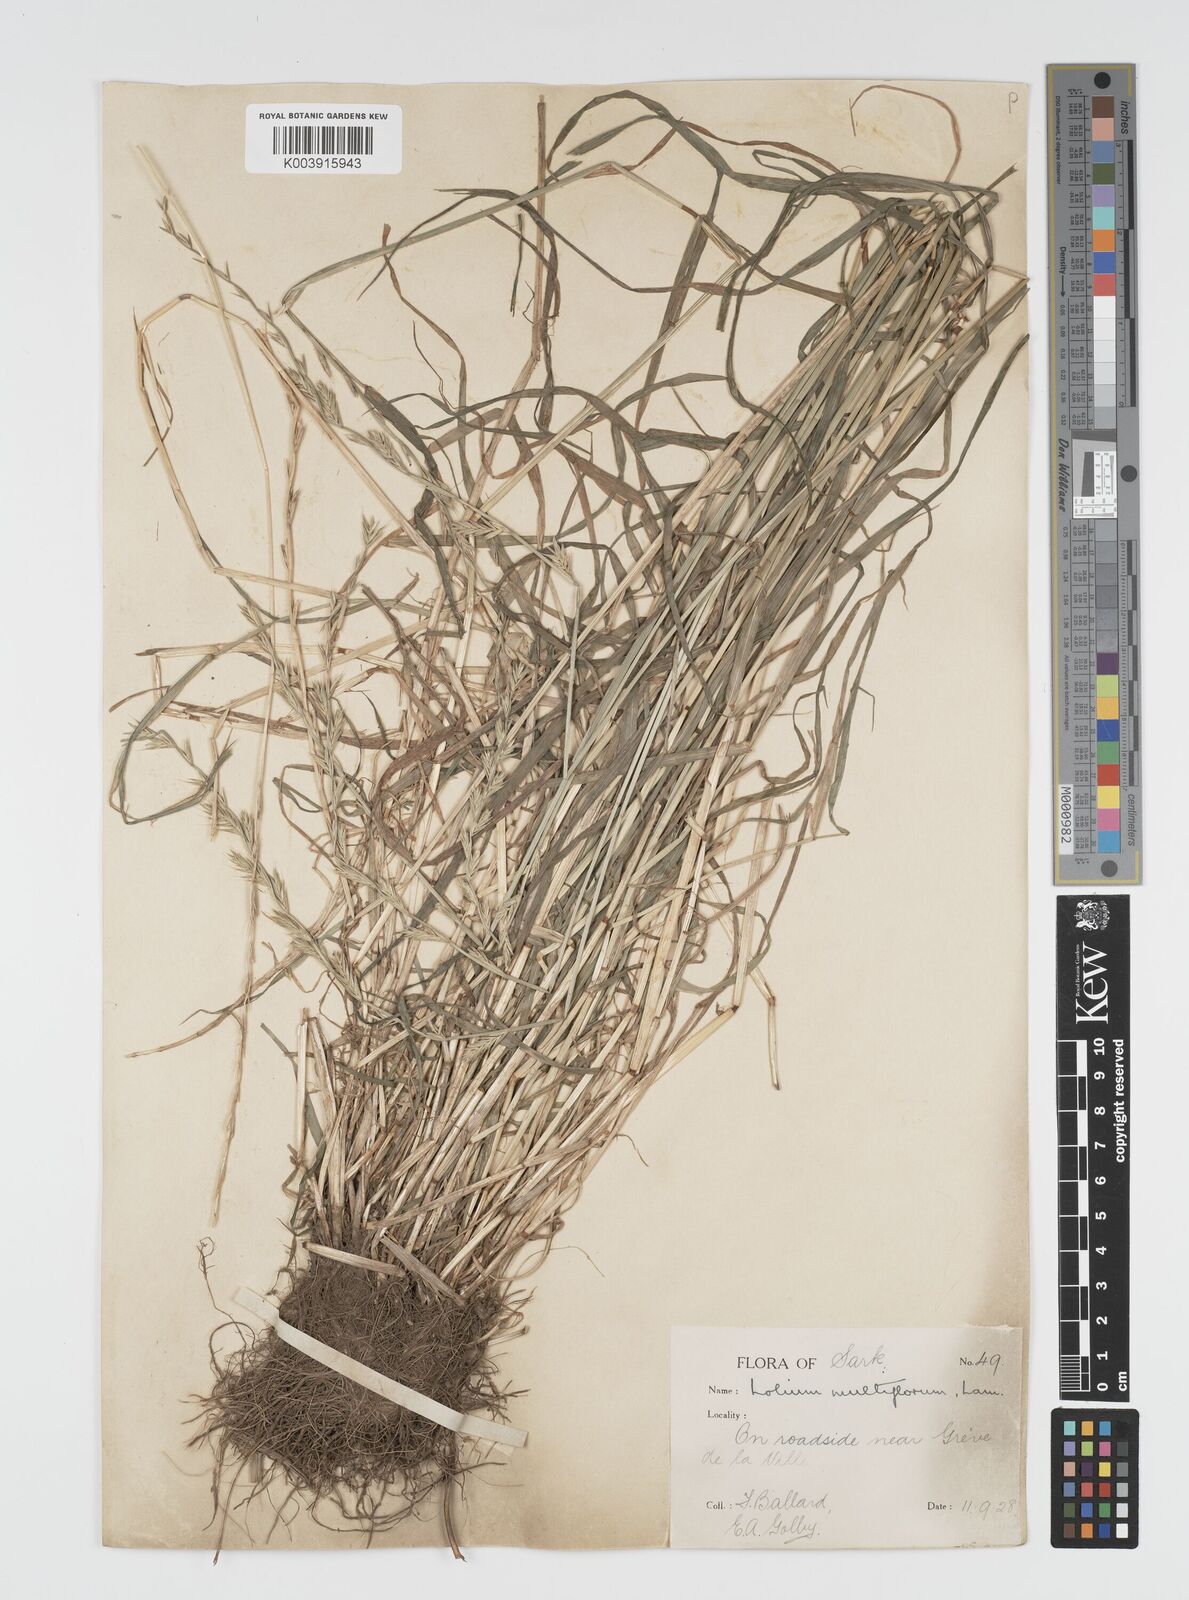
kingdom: Plantae
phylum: Tracheophyta
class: Liliopsida
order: Poales
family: Poaceae
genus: Lolium
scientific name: Lolium multiflorum
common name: Annual ryegrass
